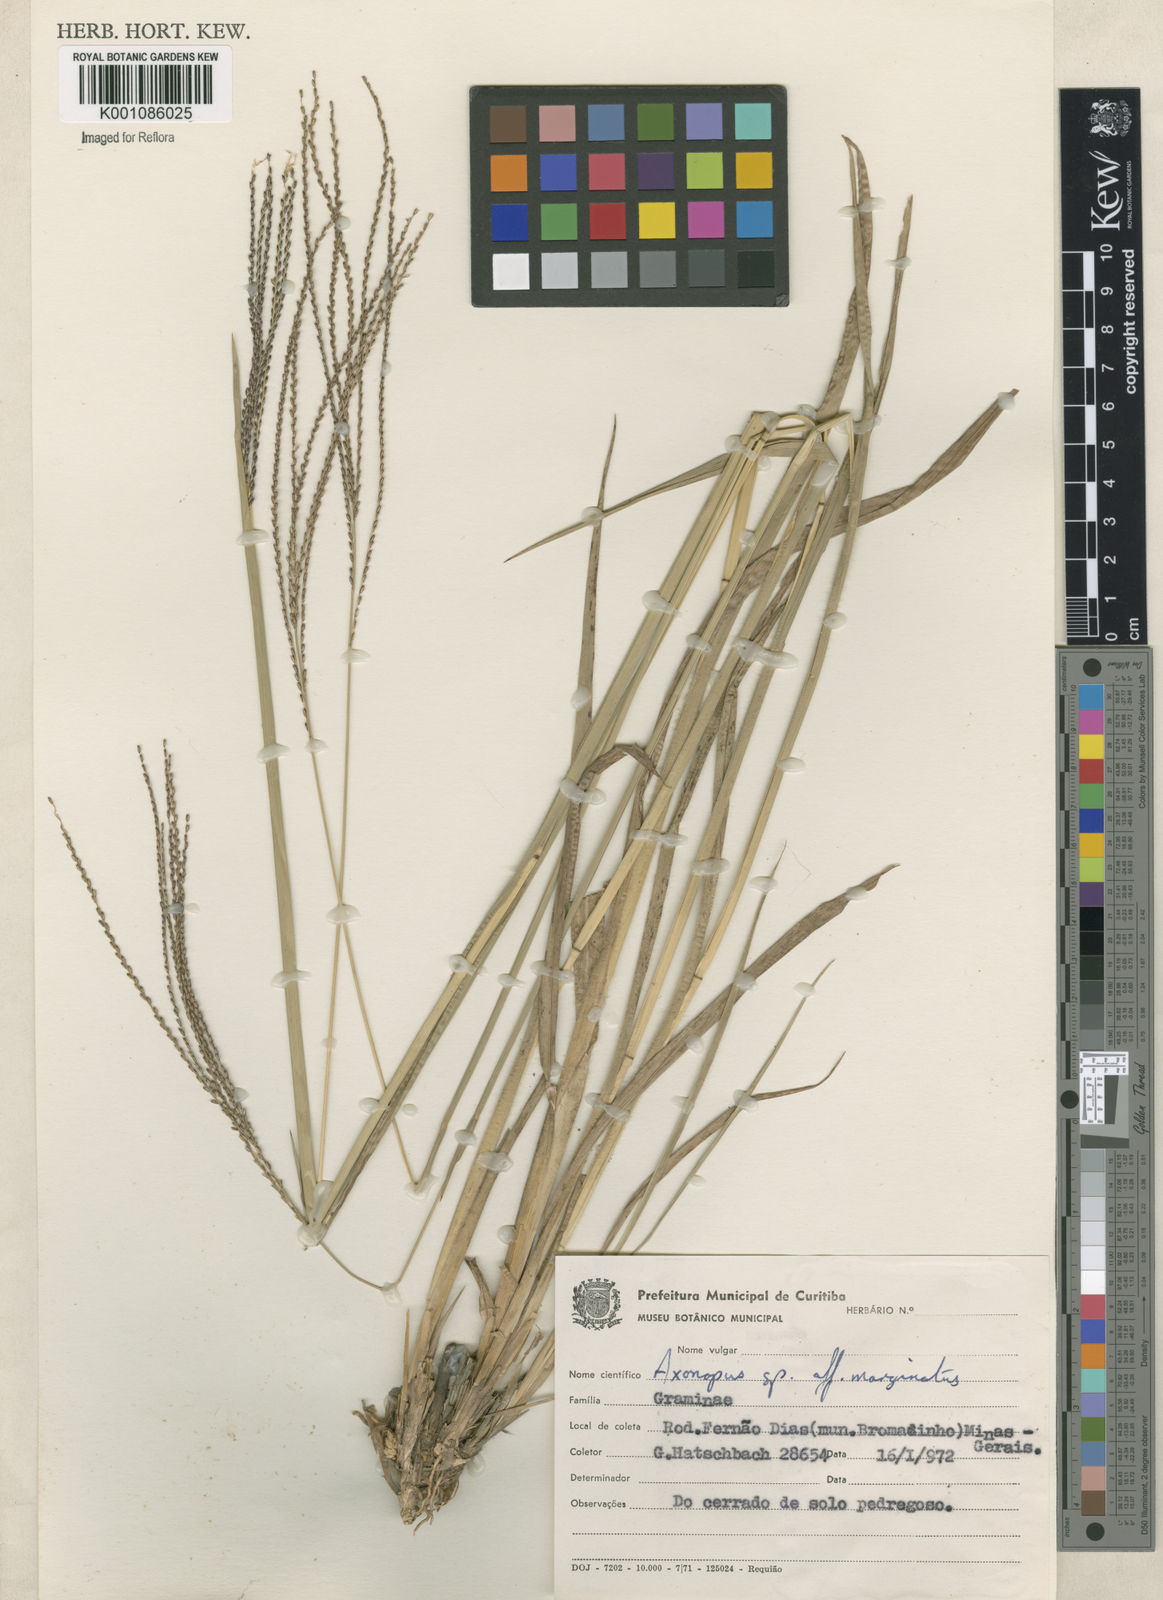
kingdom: Plantae
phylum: Tracheophyta
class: Liliopsida
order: Poales
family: Poaceae
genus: Axonopus
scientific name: Axonopus
